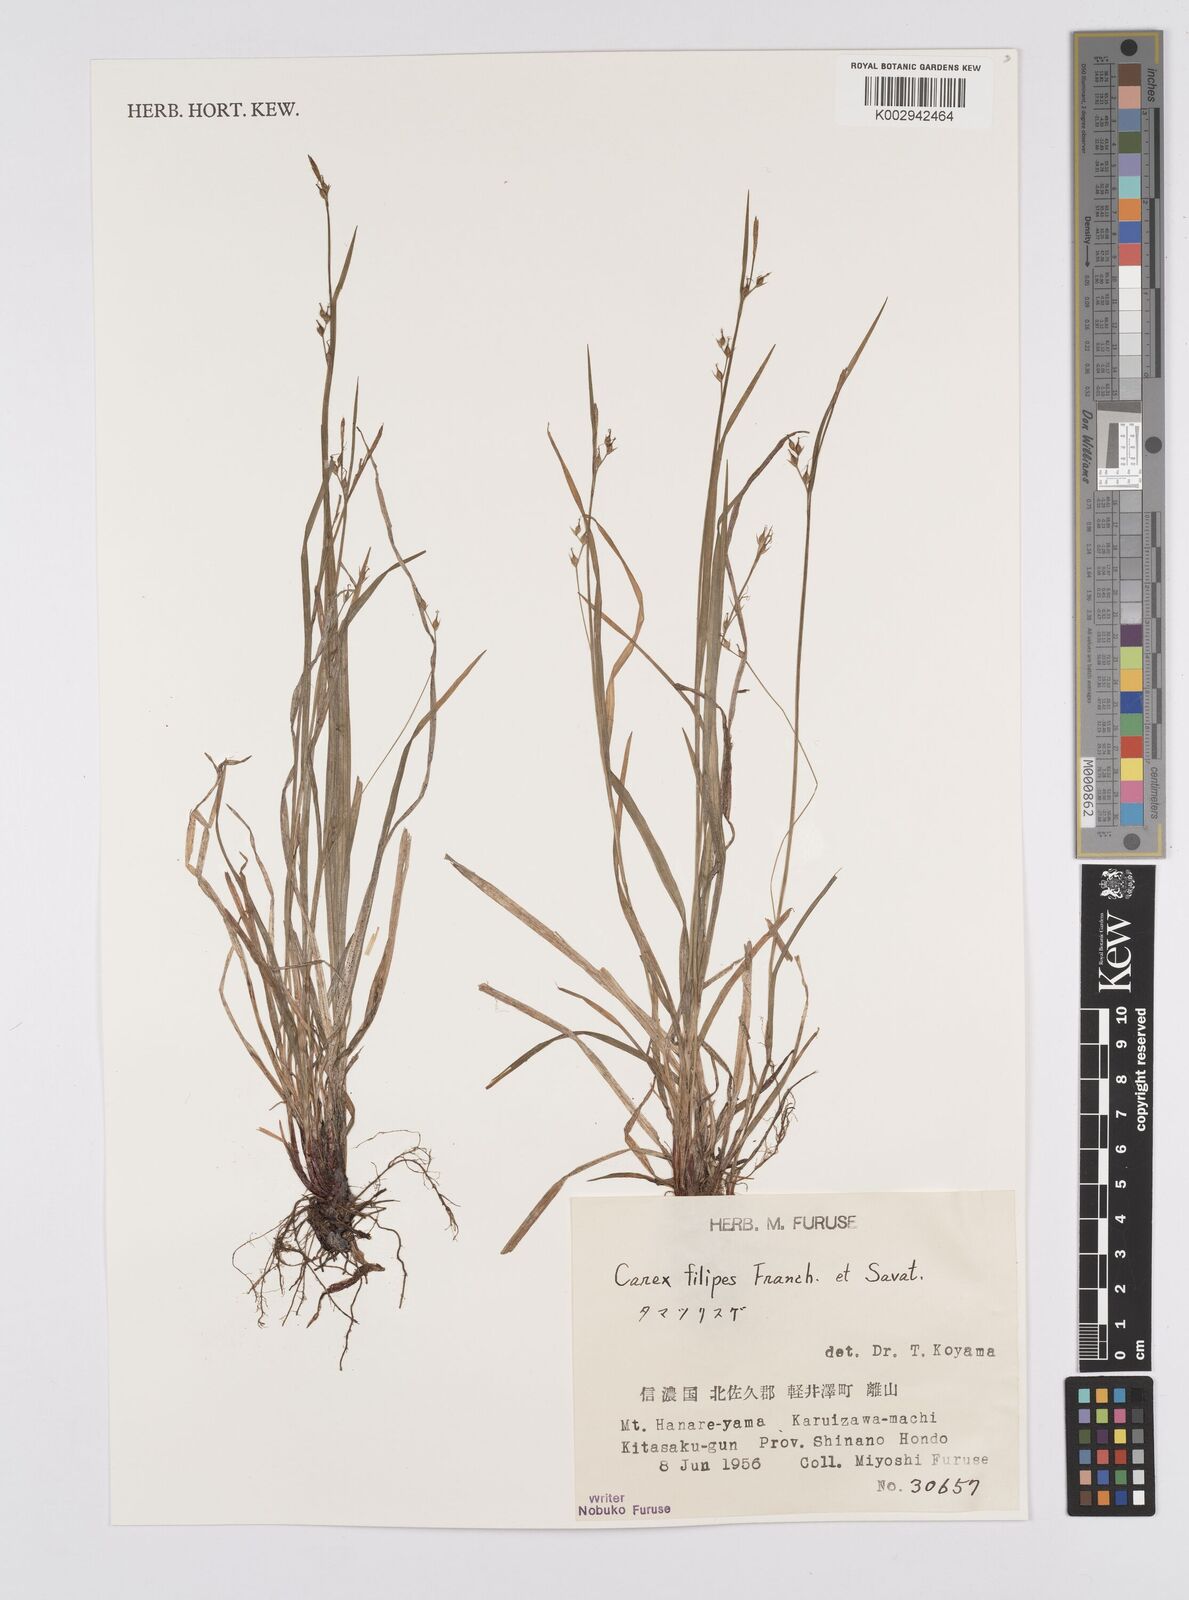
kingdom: Plantae
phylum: Tracheophyta
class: Liliopsida
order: Poales
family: Cyperaceae
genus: Carex
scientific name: Carex filipes
